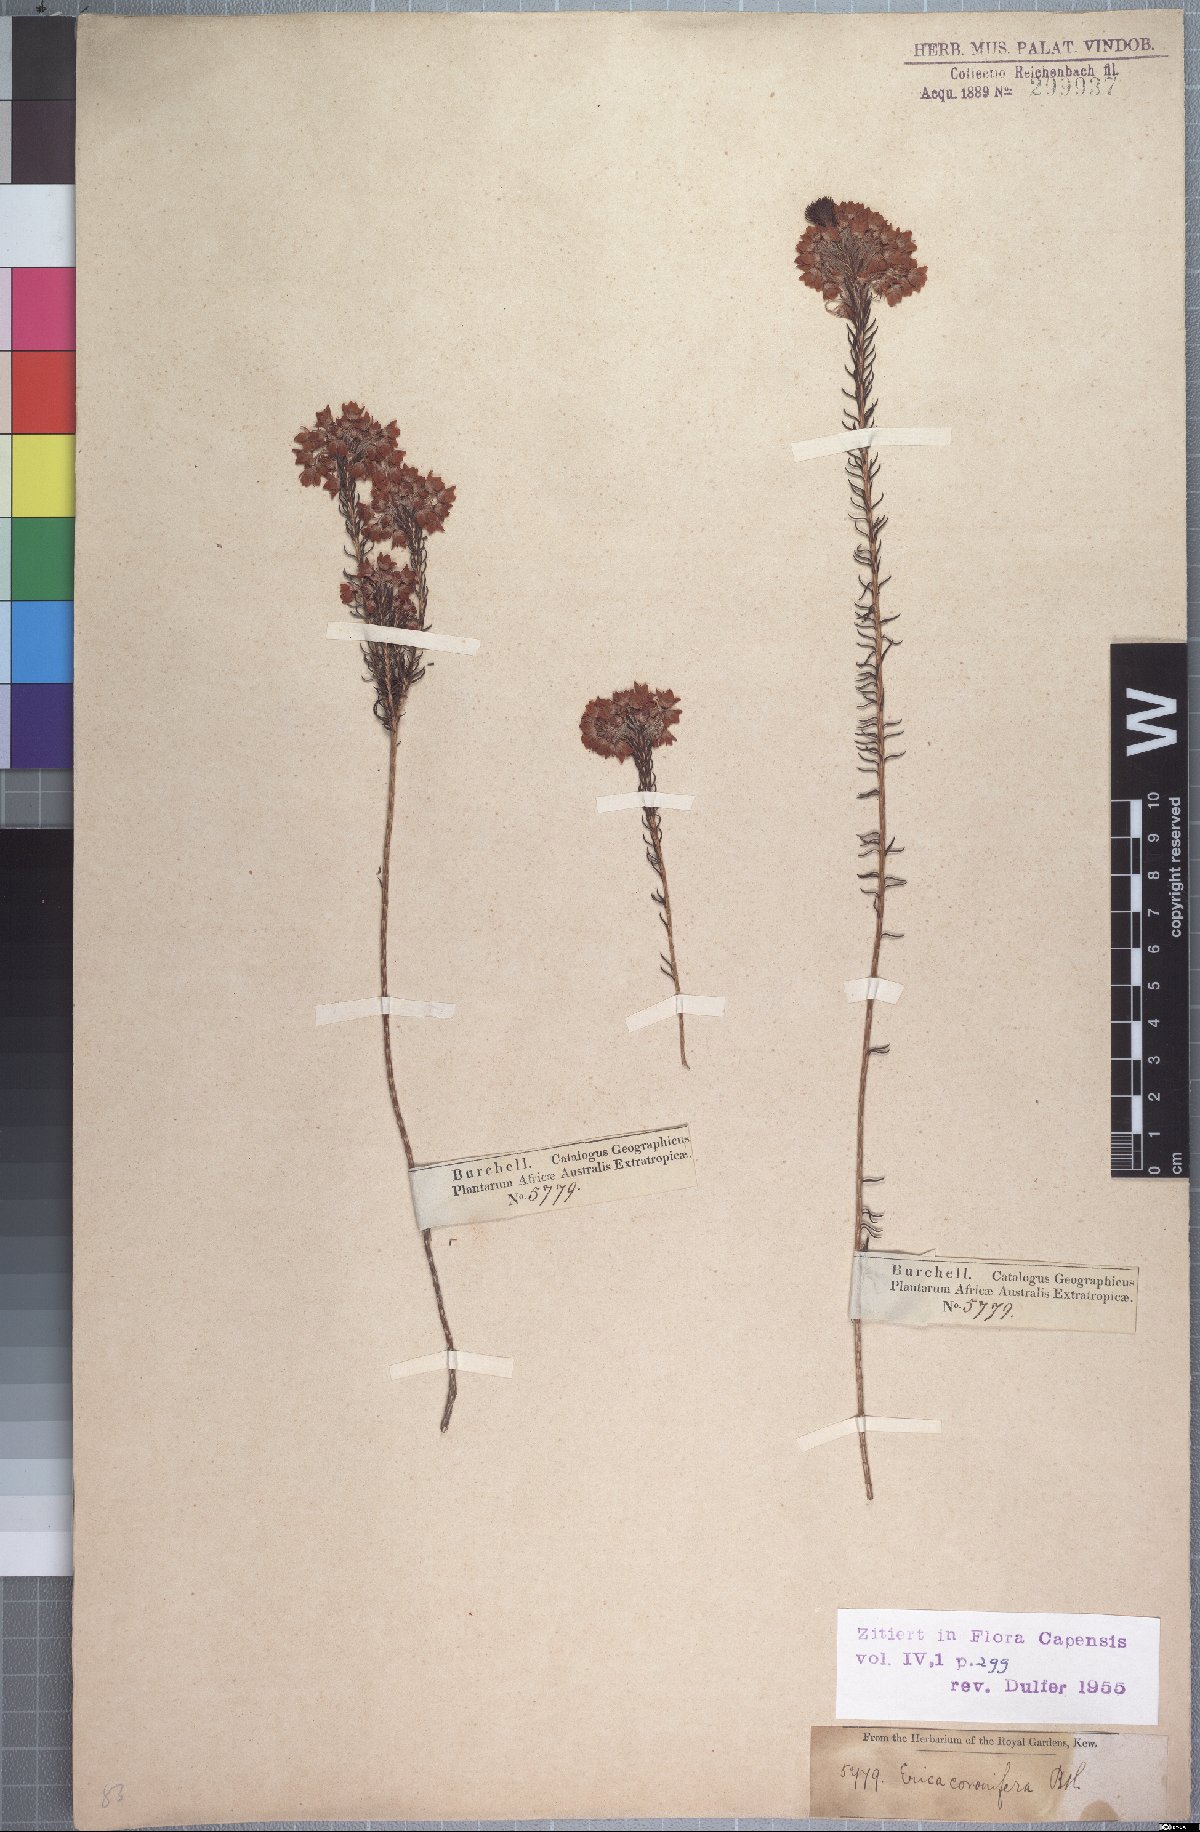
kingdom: Plantae
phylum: Tracheophyta
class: Magnoliopsida
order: Ericales
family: Ericaceae
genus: Erica
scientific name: Erica cubica
